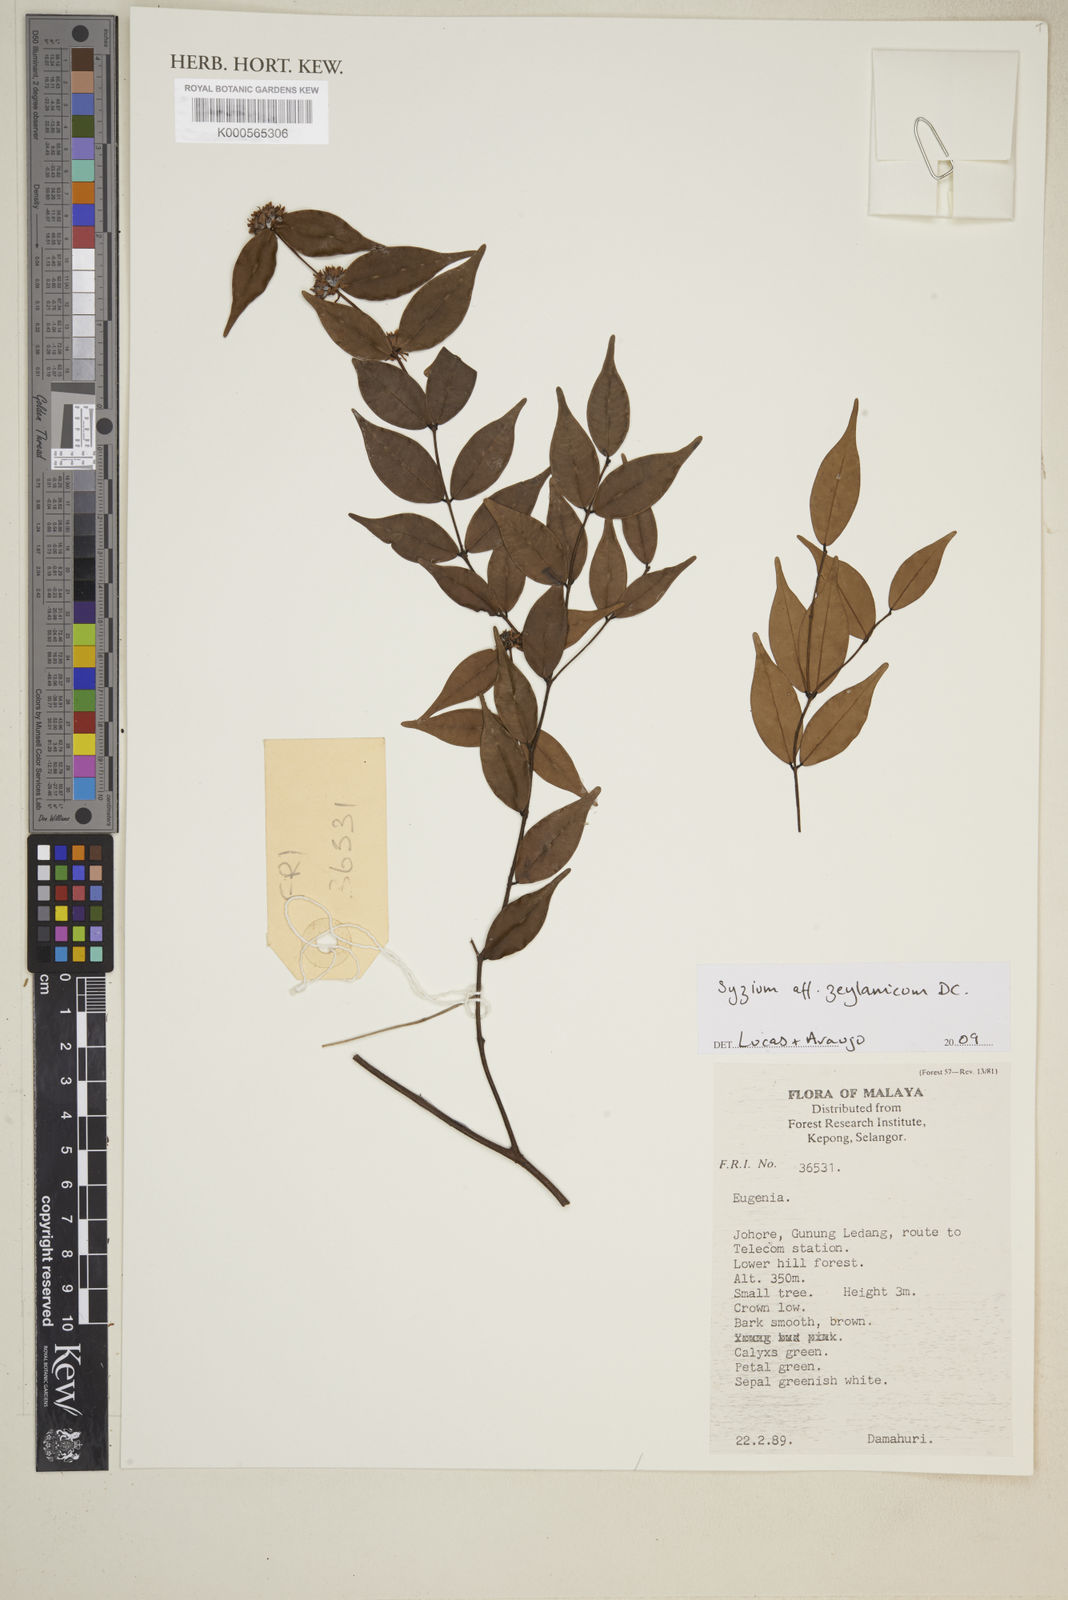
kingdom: Plantae
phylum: Tracheophyta
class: Magnoliopsida
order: Myrtales
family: Myrtaceae
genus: Syzygium
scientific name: Syzygium zeylanicum
